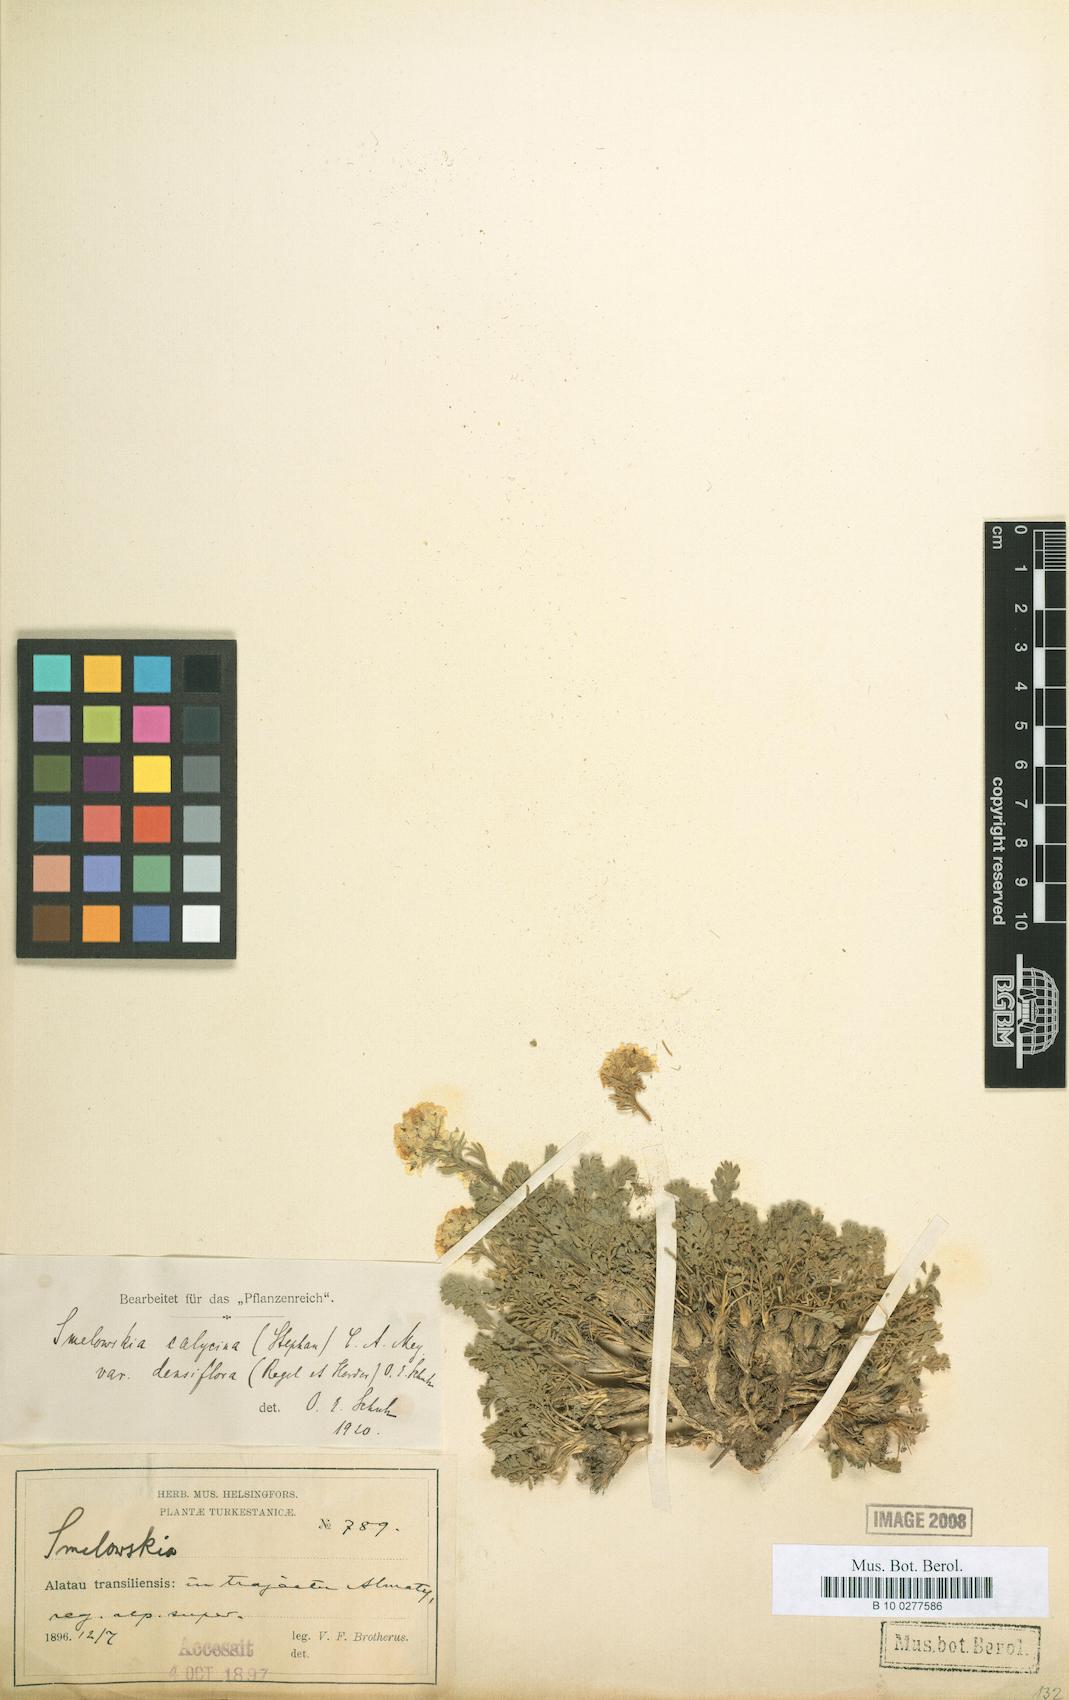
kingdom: Plantae
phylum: Tracheophyta
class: Magnoliopsida
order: Brassicales
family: Brassicaceae
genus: Smelowskia
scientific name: Smelowskia calycina
